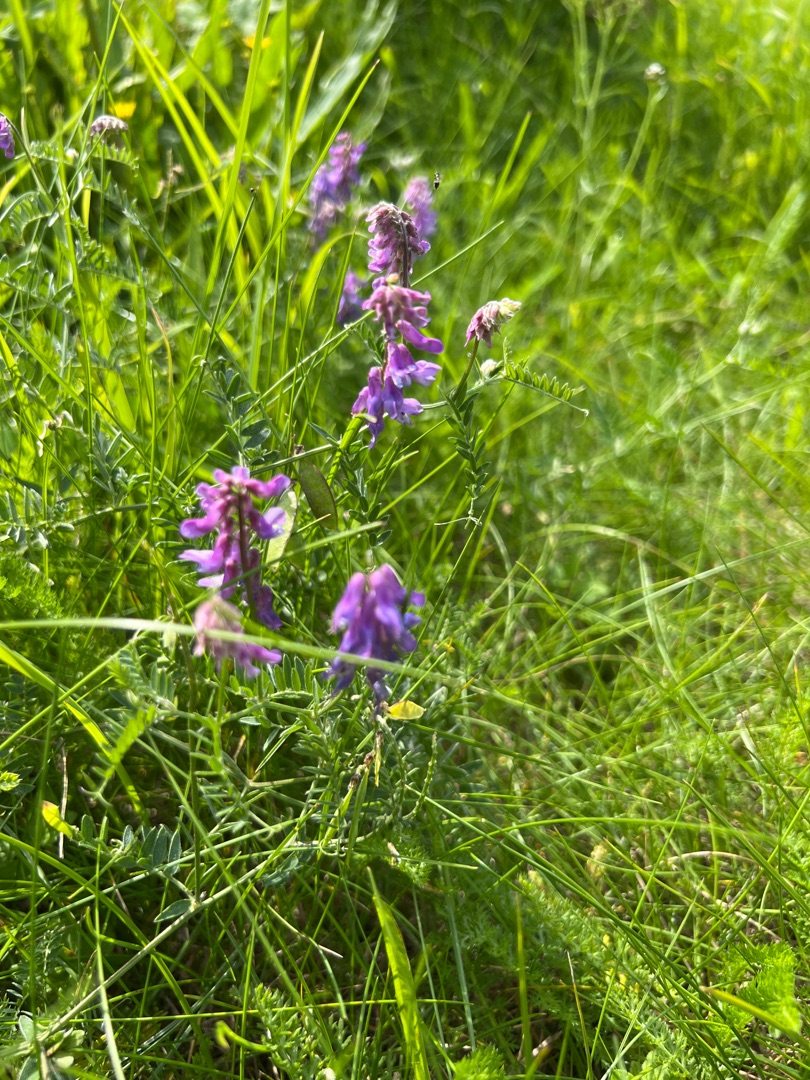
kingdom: Plantae
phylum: Tracheophyta
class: Magnoliopsida
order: Fabales
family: Fabaceae
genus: Vicia
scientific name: Vicia cracca
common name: Muse-vikke
